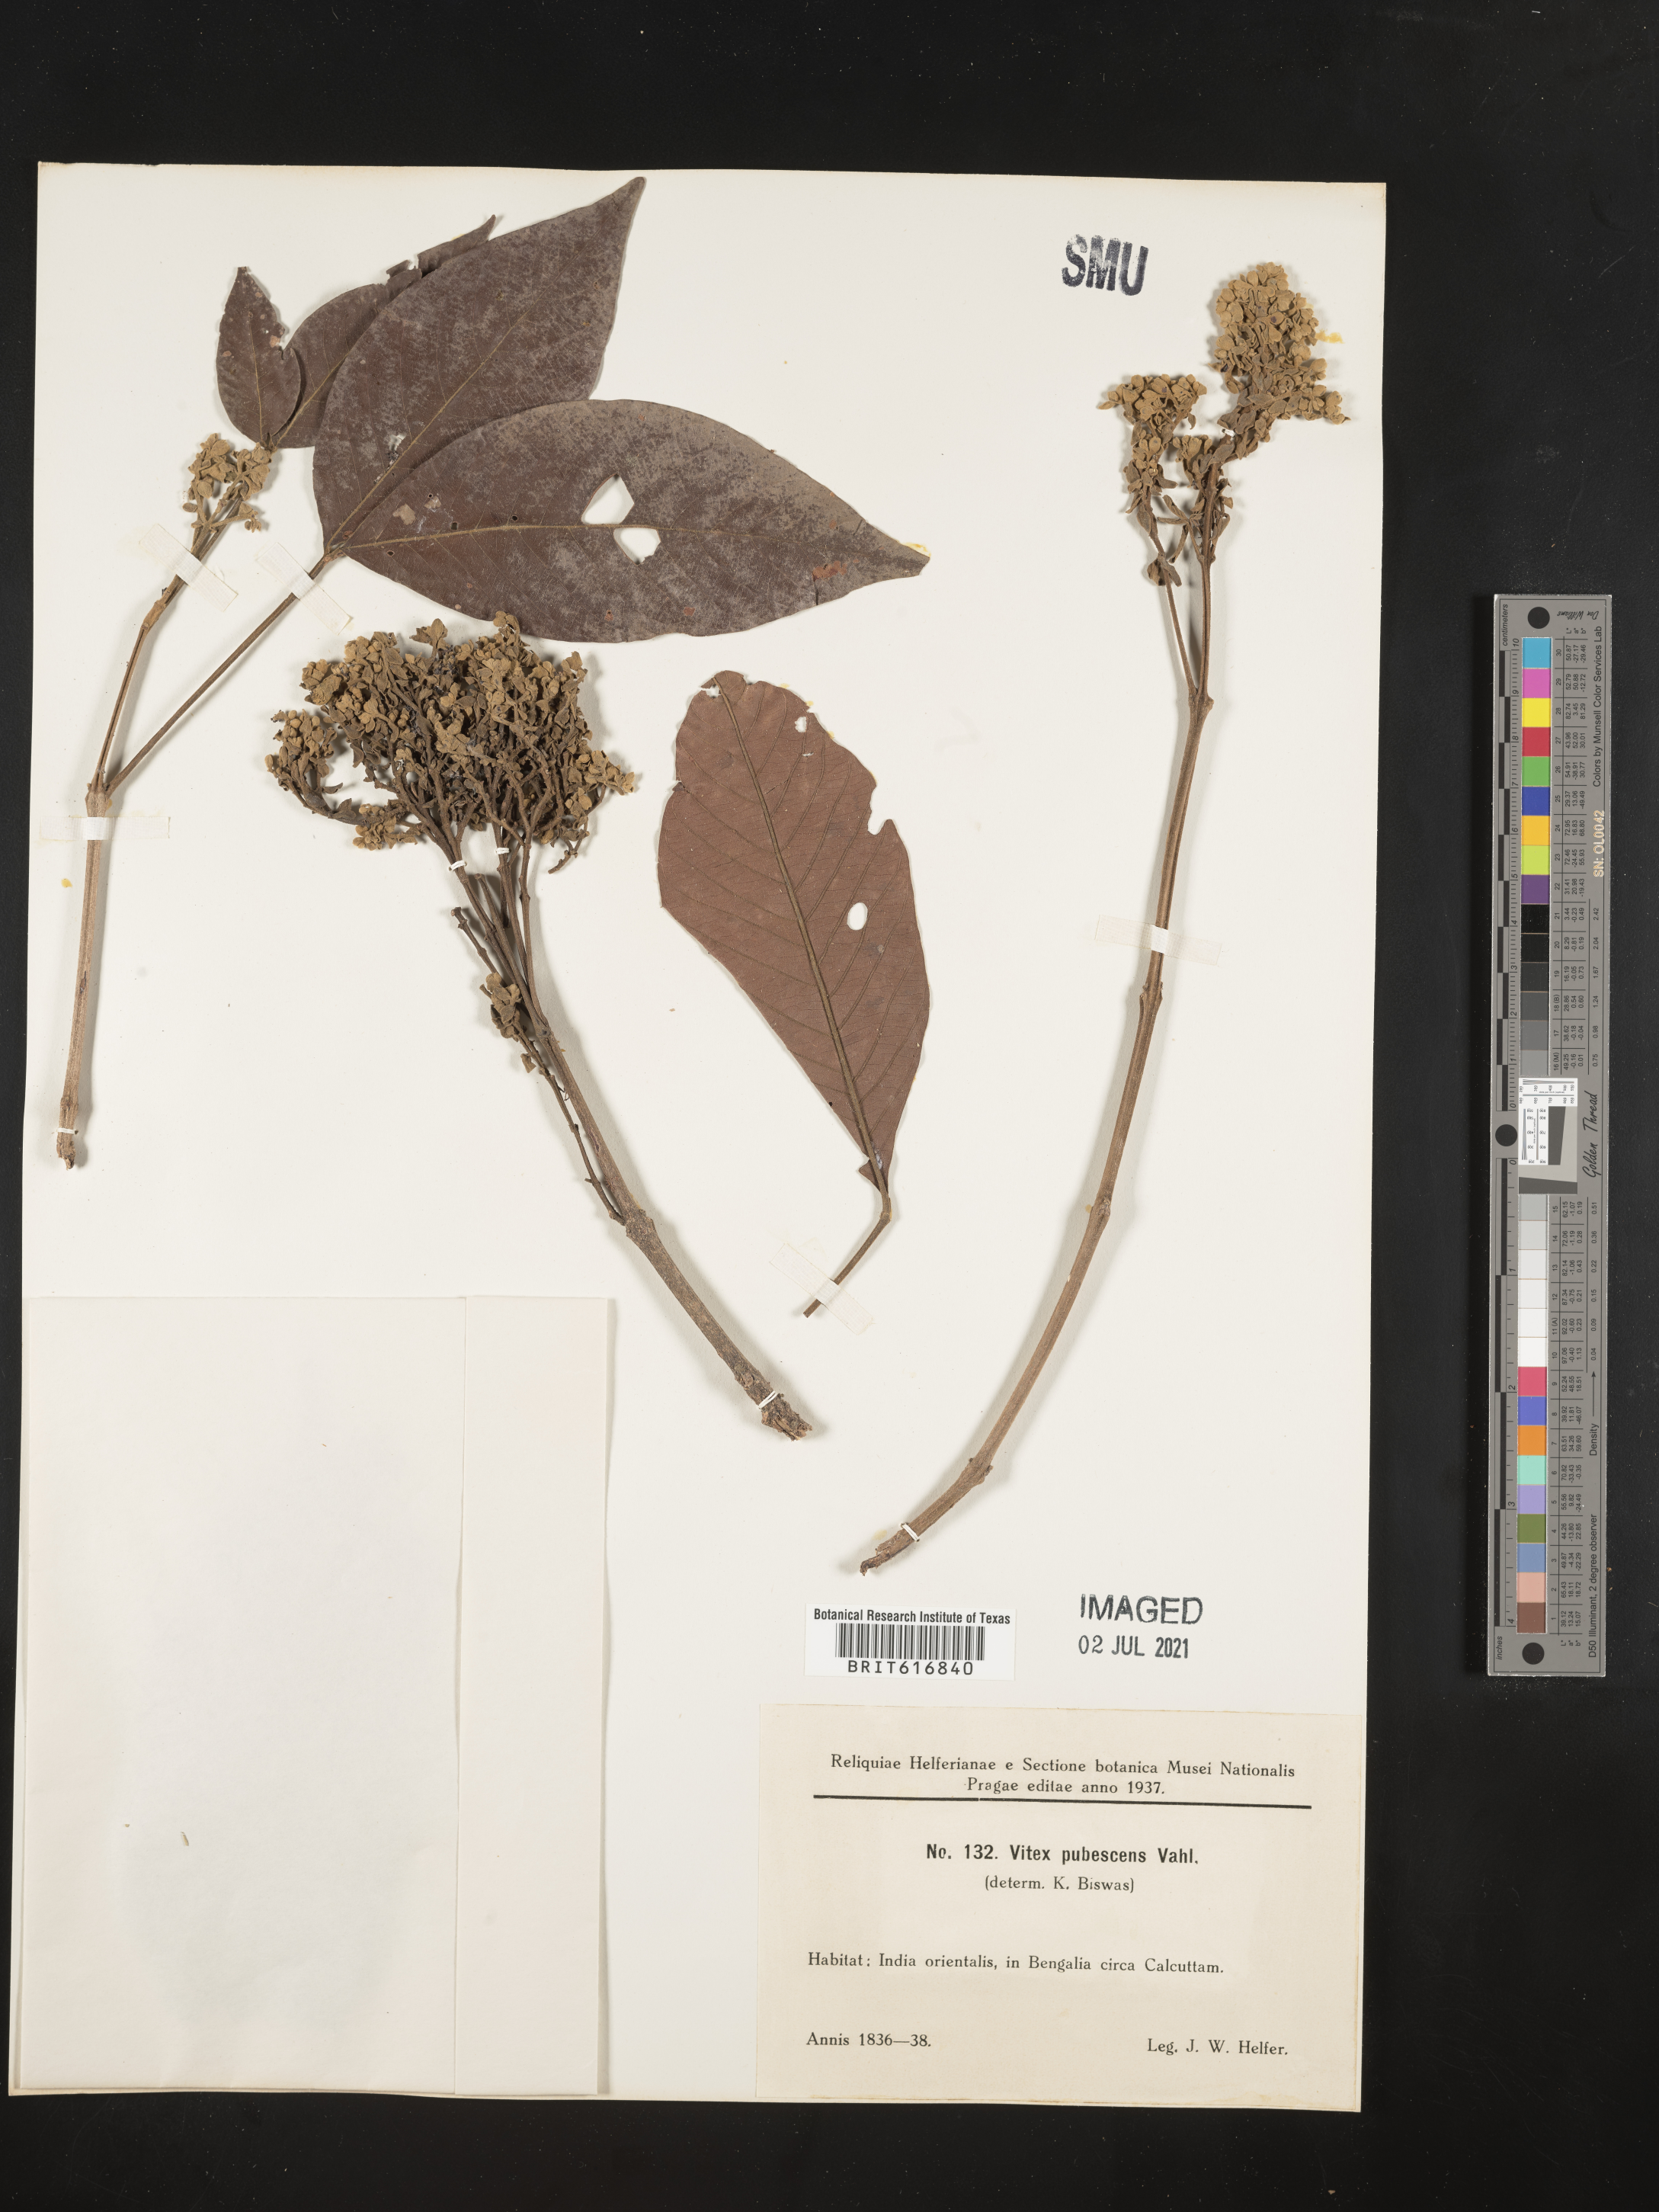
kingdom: Plantae
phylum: Tracheophyta
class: Magnoliopsida
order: Lamiales
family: Lamiaceae
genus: Vitex
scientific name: Vitex pinnata
